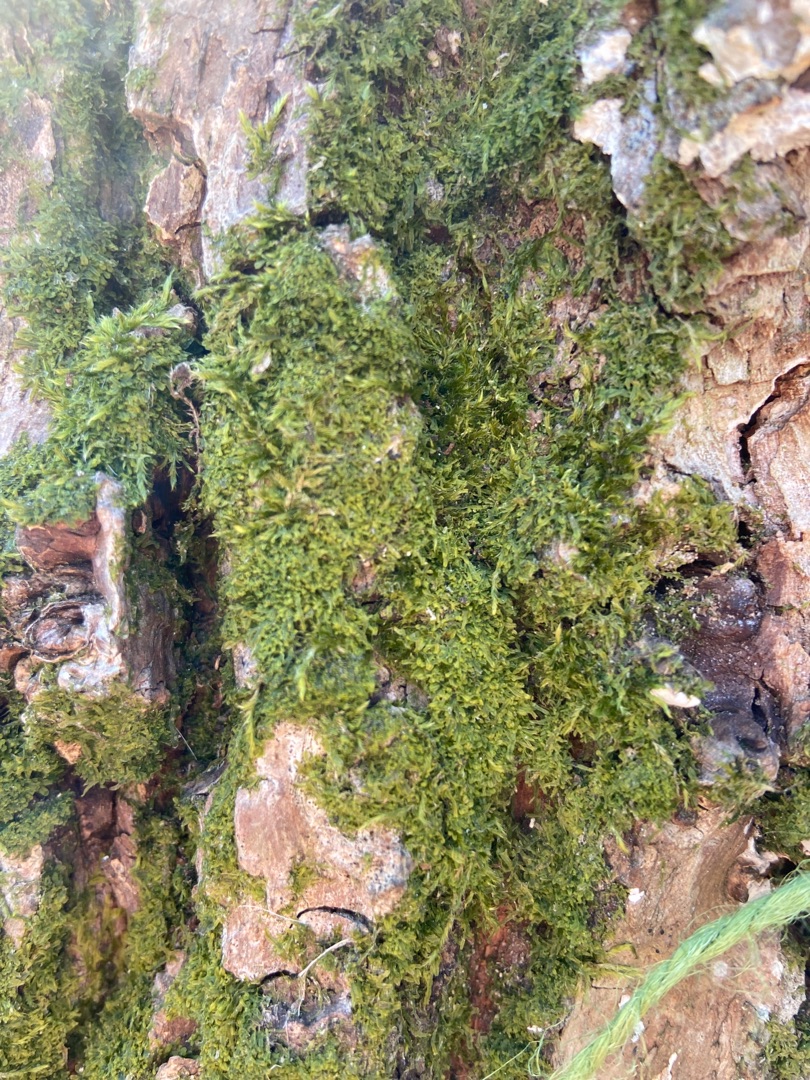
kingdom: Plantae
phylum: Marchantiophyta
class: Jungermanniopsida
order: Metzgeriales
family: Metzgeriaceae
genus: Metzgeria
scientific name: Metzgeria furcata
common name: Almindelig gaffelløv
